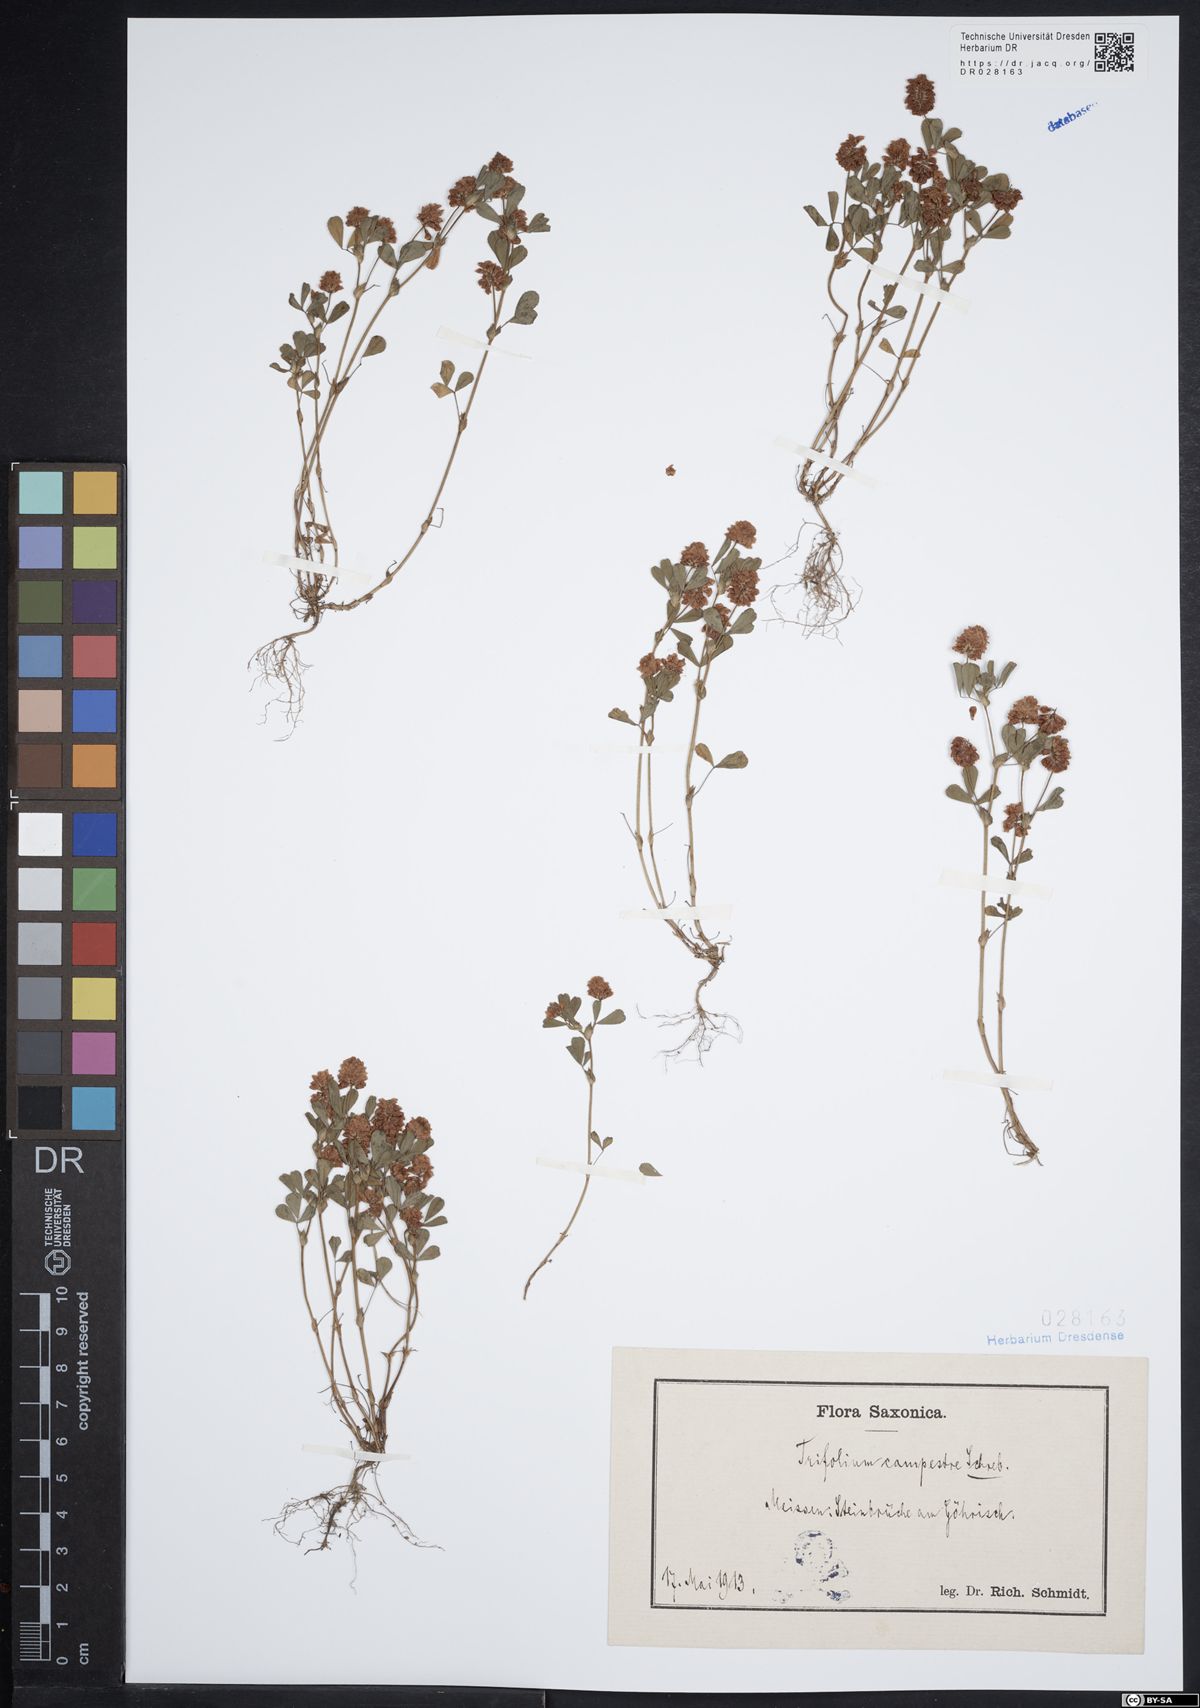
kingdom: Plantae
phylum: Tracheophyta
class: Magnoliopsida
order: Fabales
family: Fabaceae
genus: Trifolium
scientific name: Trifolium campestre
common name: Field clover
